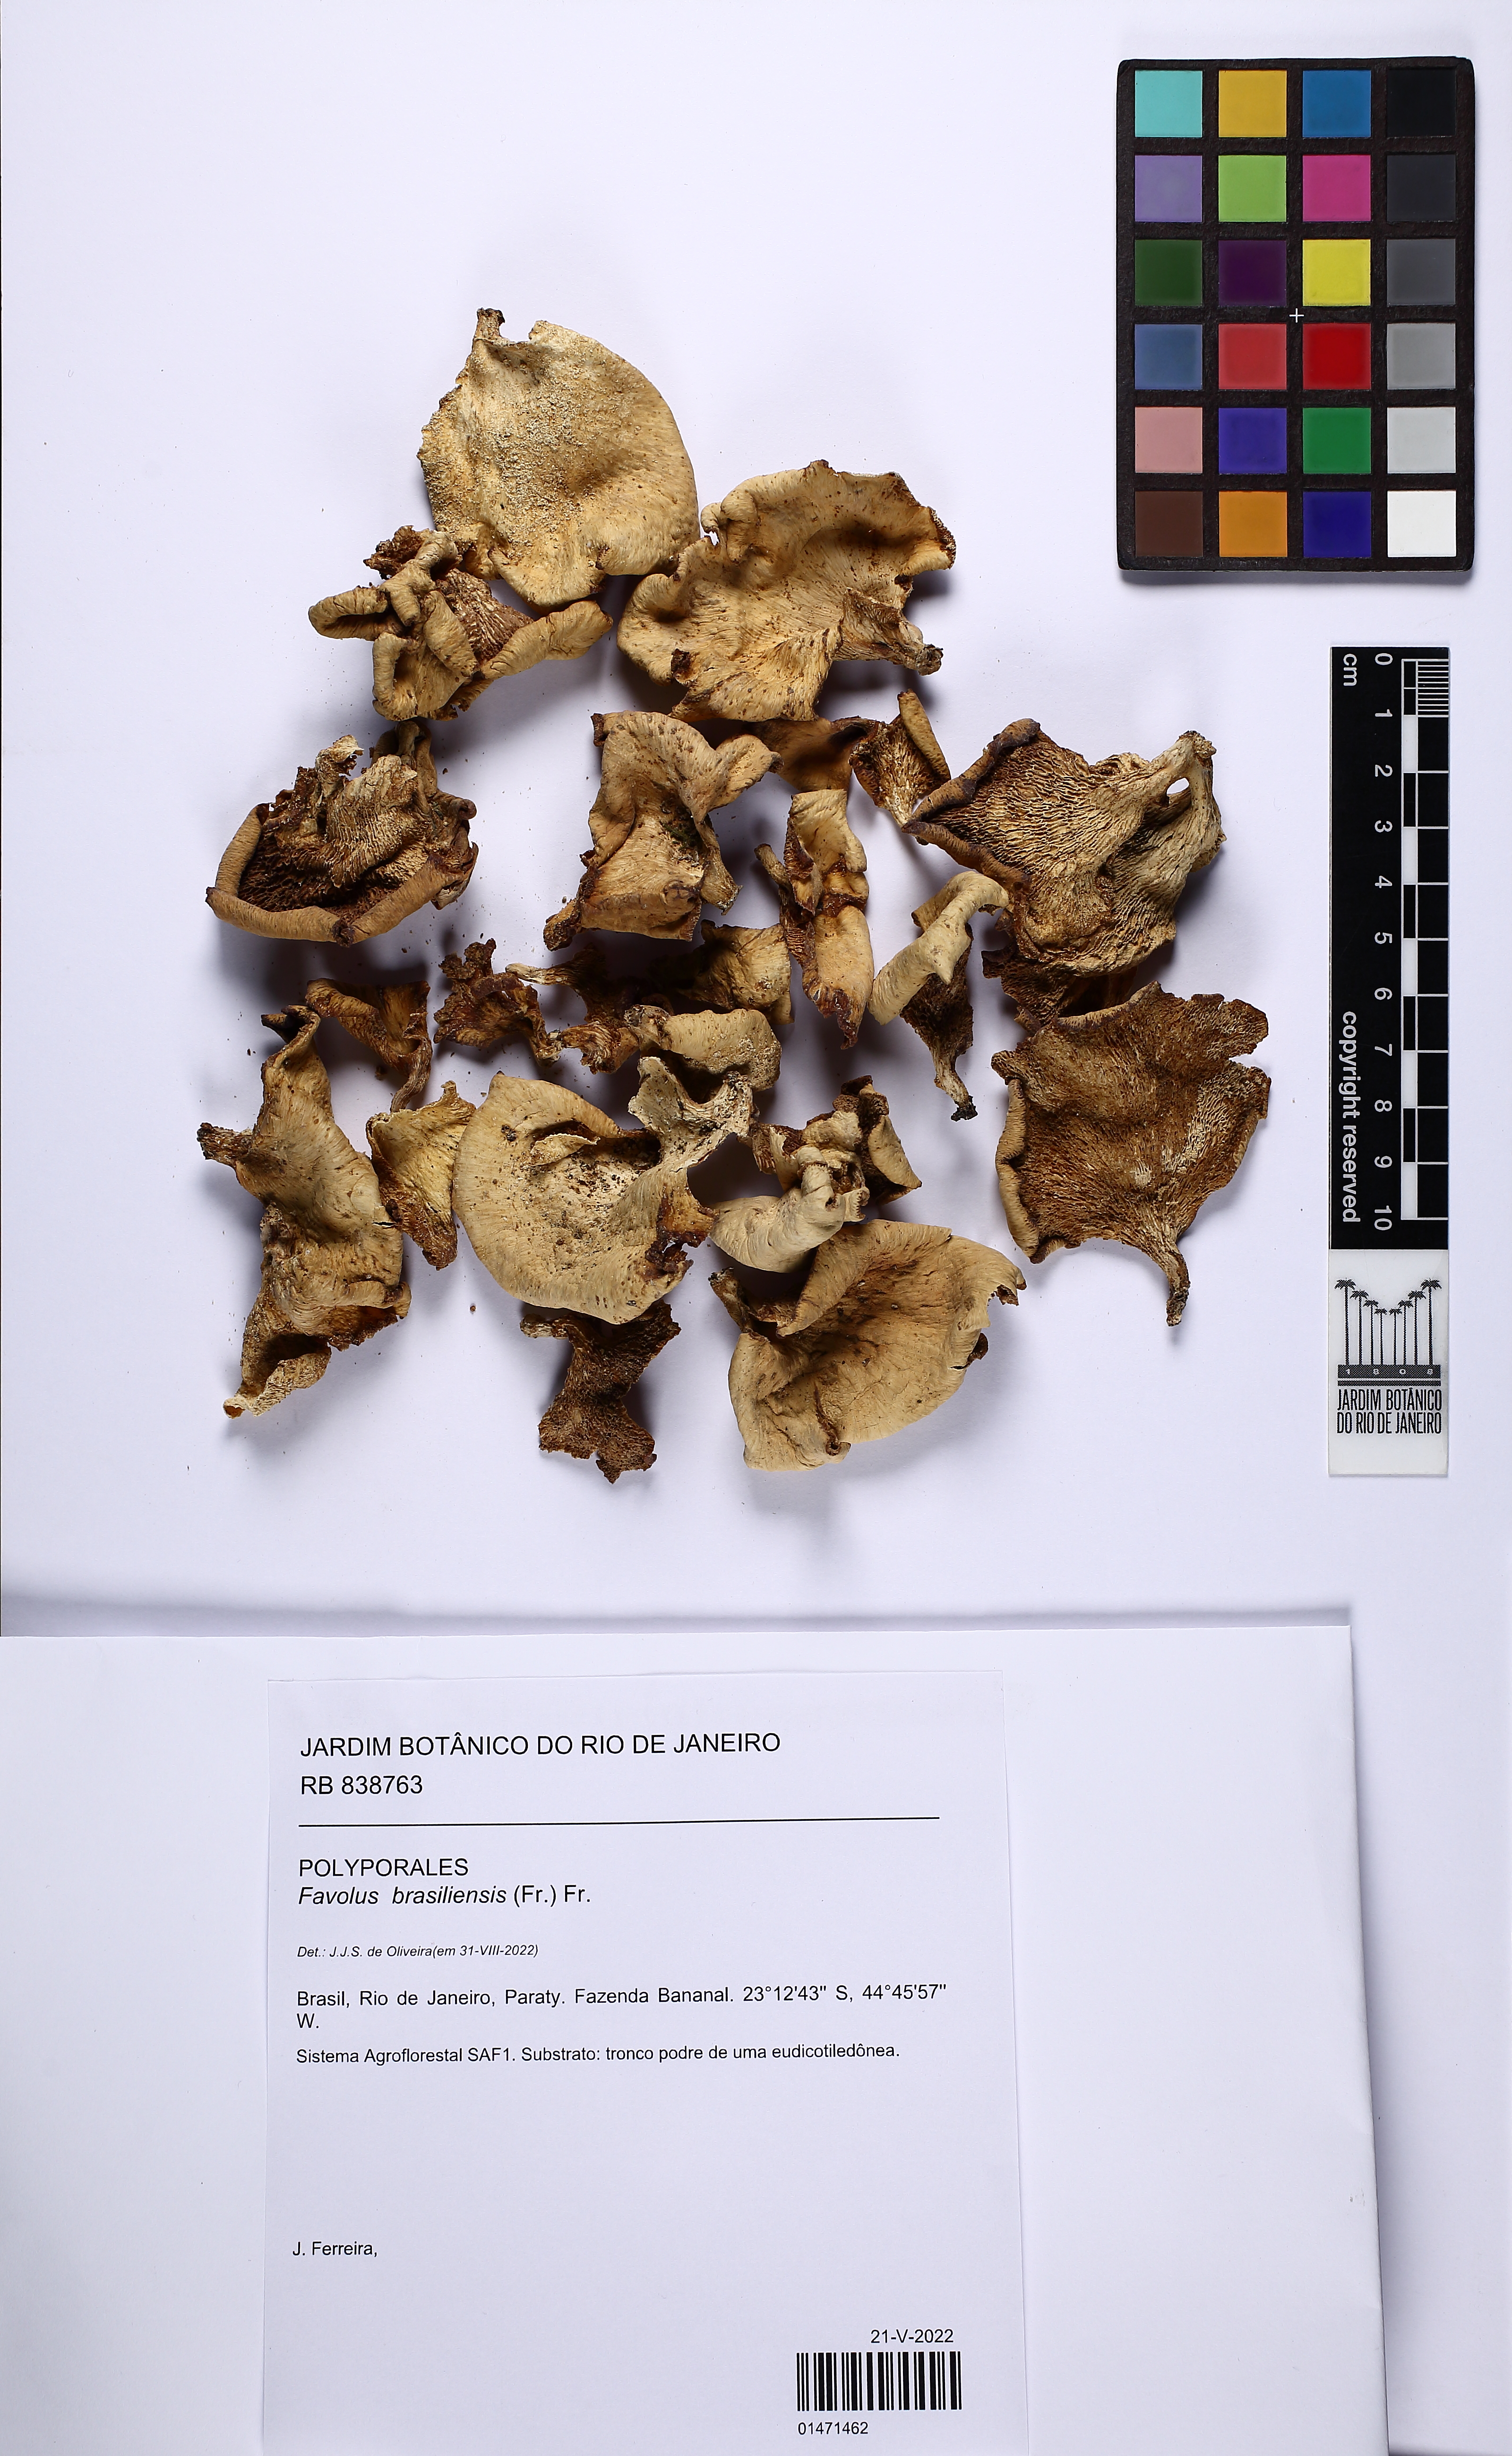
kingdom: Fungi
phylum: Basidiomycota
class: Agaricomycetes
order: Polyporales
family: Polyporaceae
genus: Favolus
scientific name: Favolus tenuiculus
